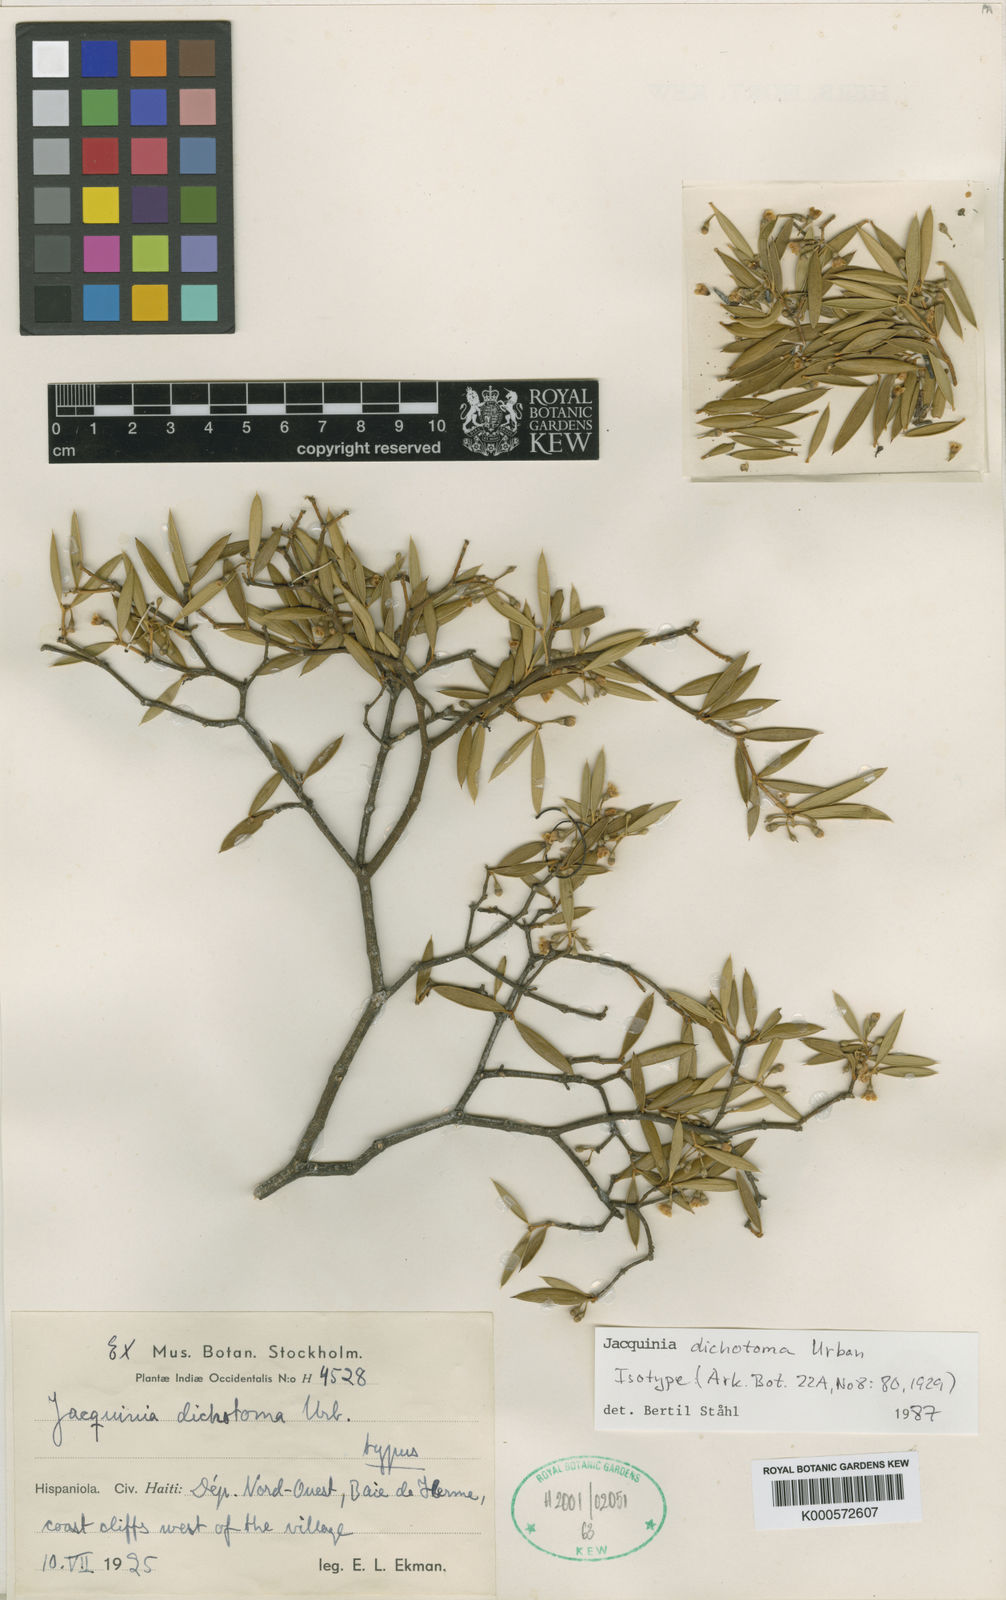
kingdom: Plantae
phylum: Tracheophyta
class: Magnoliopsida
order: Ericales
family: Primulaceae
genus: Jacquinia
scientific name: Jacquinia dichotoma
